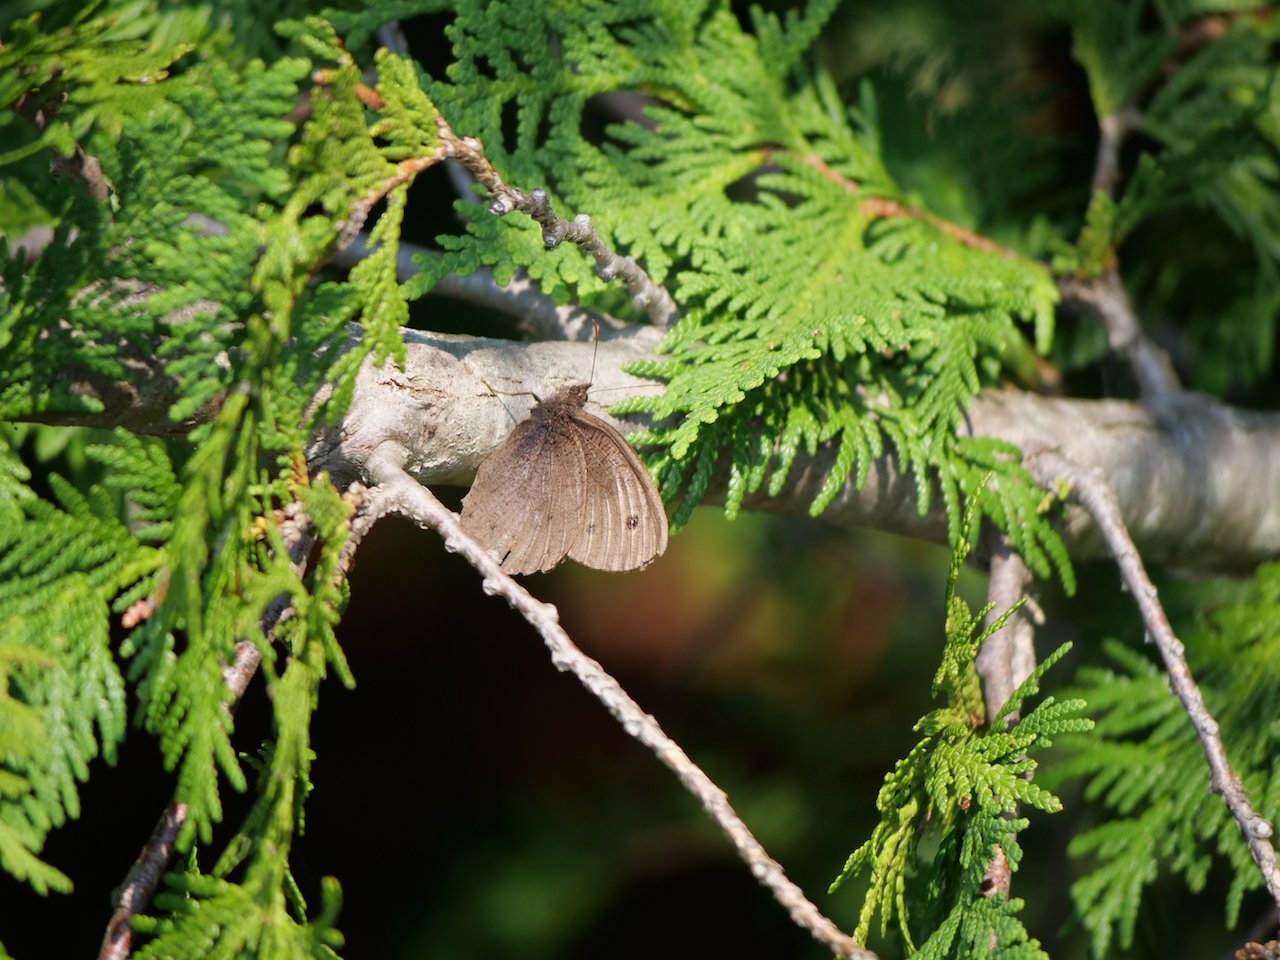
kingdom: Animalia
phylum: Arthropoda
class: Insecta
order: Lepidoptera
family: Nymphalidae
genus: Cercyonis
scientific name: Cercyonis pegala
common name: Common Wood-Nymph
